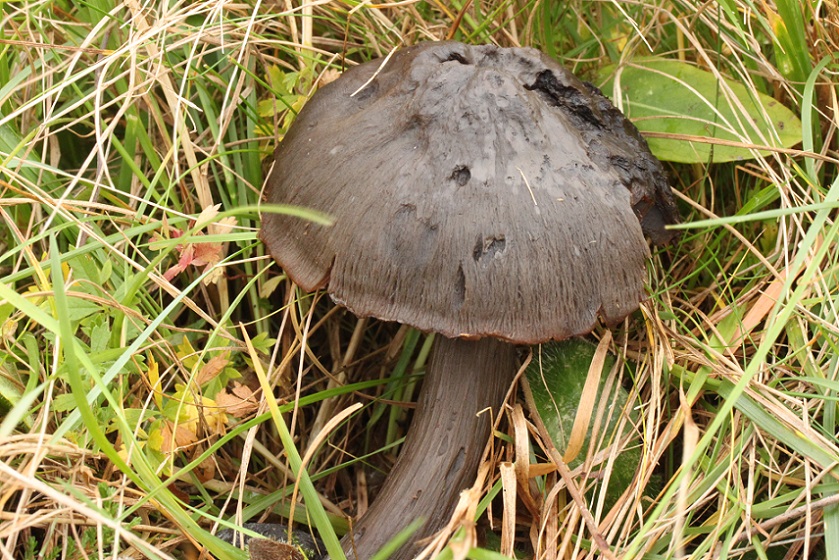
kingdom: Fungi
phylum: Basidiomycota
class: Agaricomycetes
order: Agaricales
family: Hygrophoraceae
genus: Neohygrocybe
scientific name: Neohygrocybe ovina
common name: rødmende vokshat
